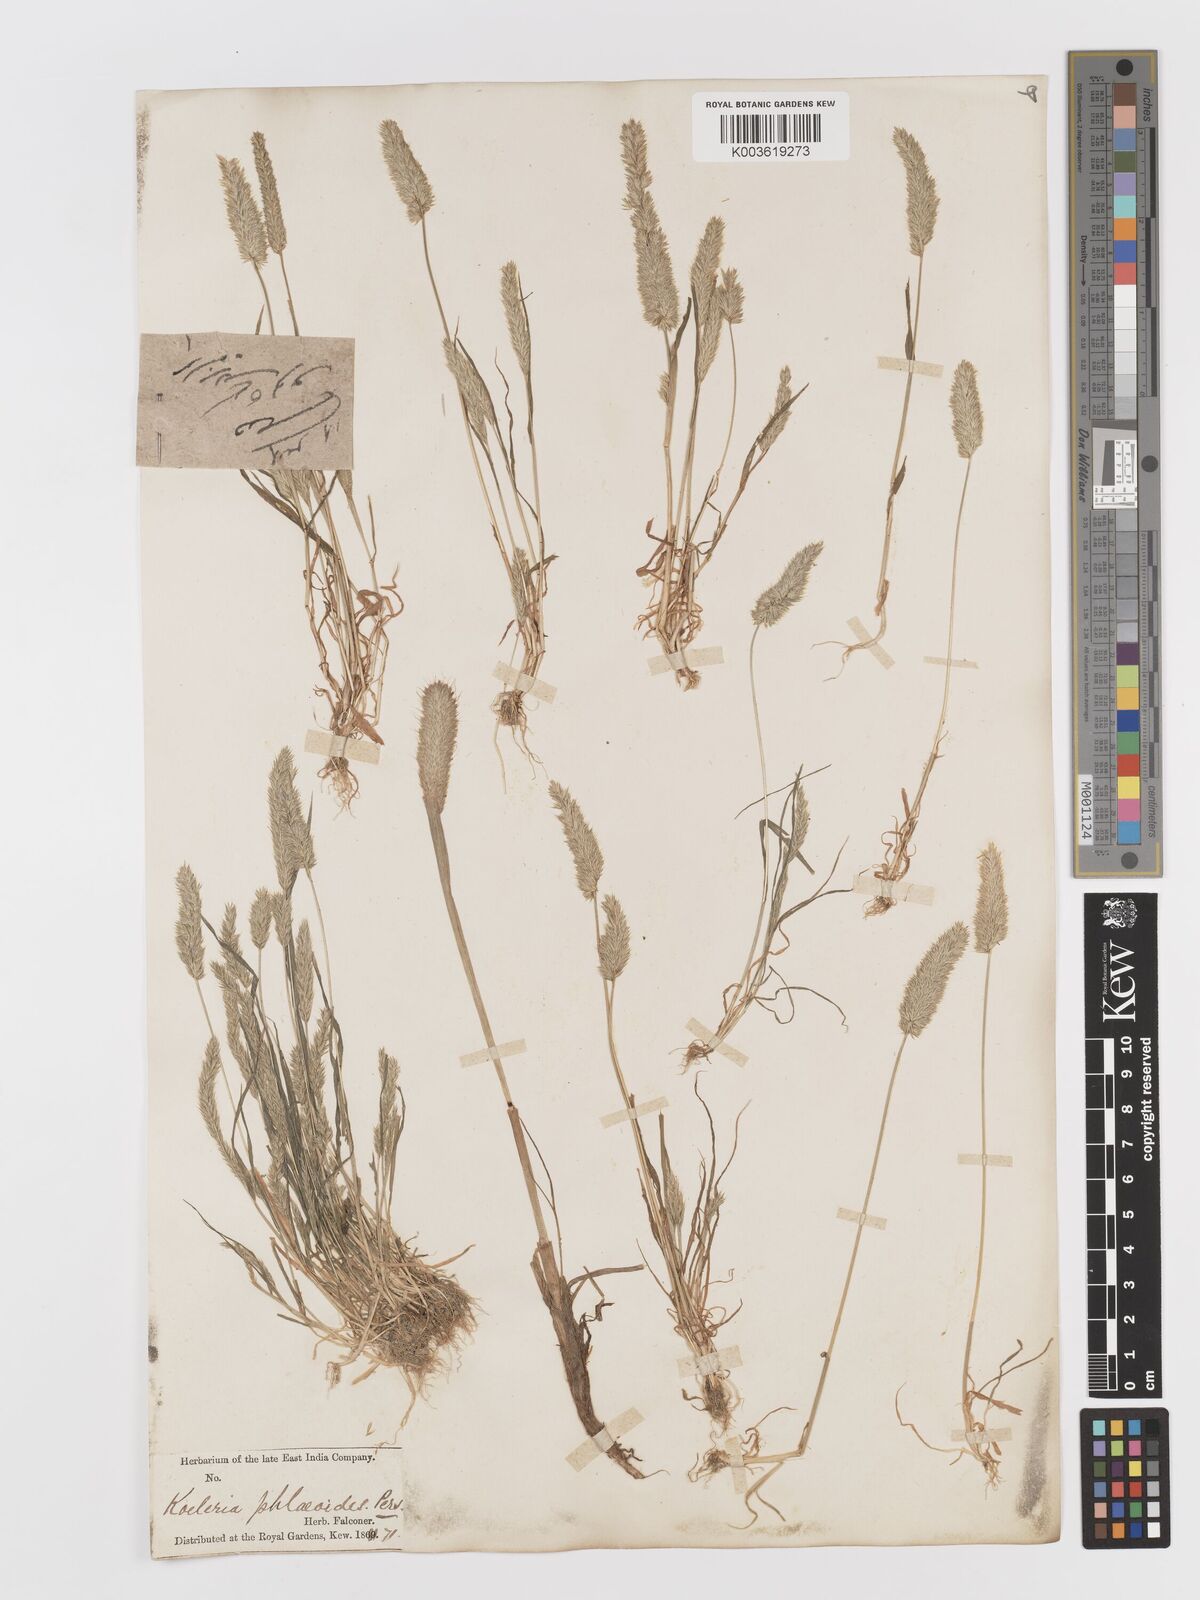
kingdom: Plantae
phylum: Tracheophyta
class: Liliopsida
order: Poales
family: Poaceae
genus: Rostraria
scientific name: Rostraria cristata
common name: Mediterranean hair-grass
